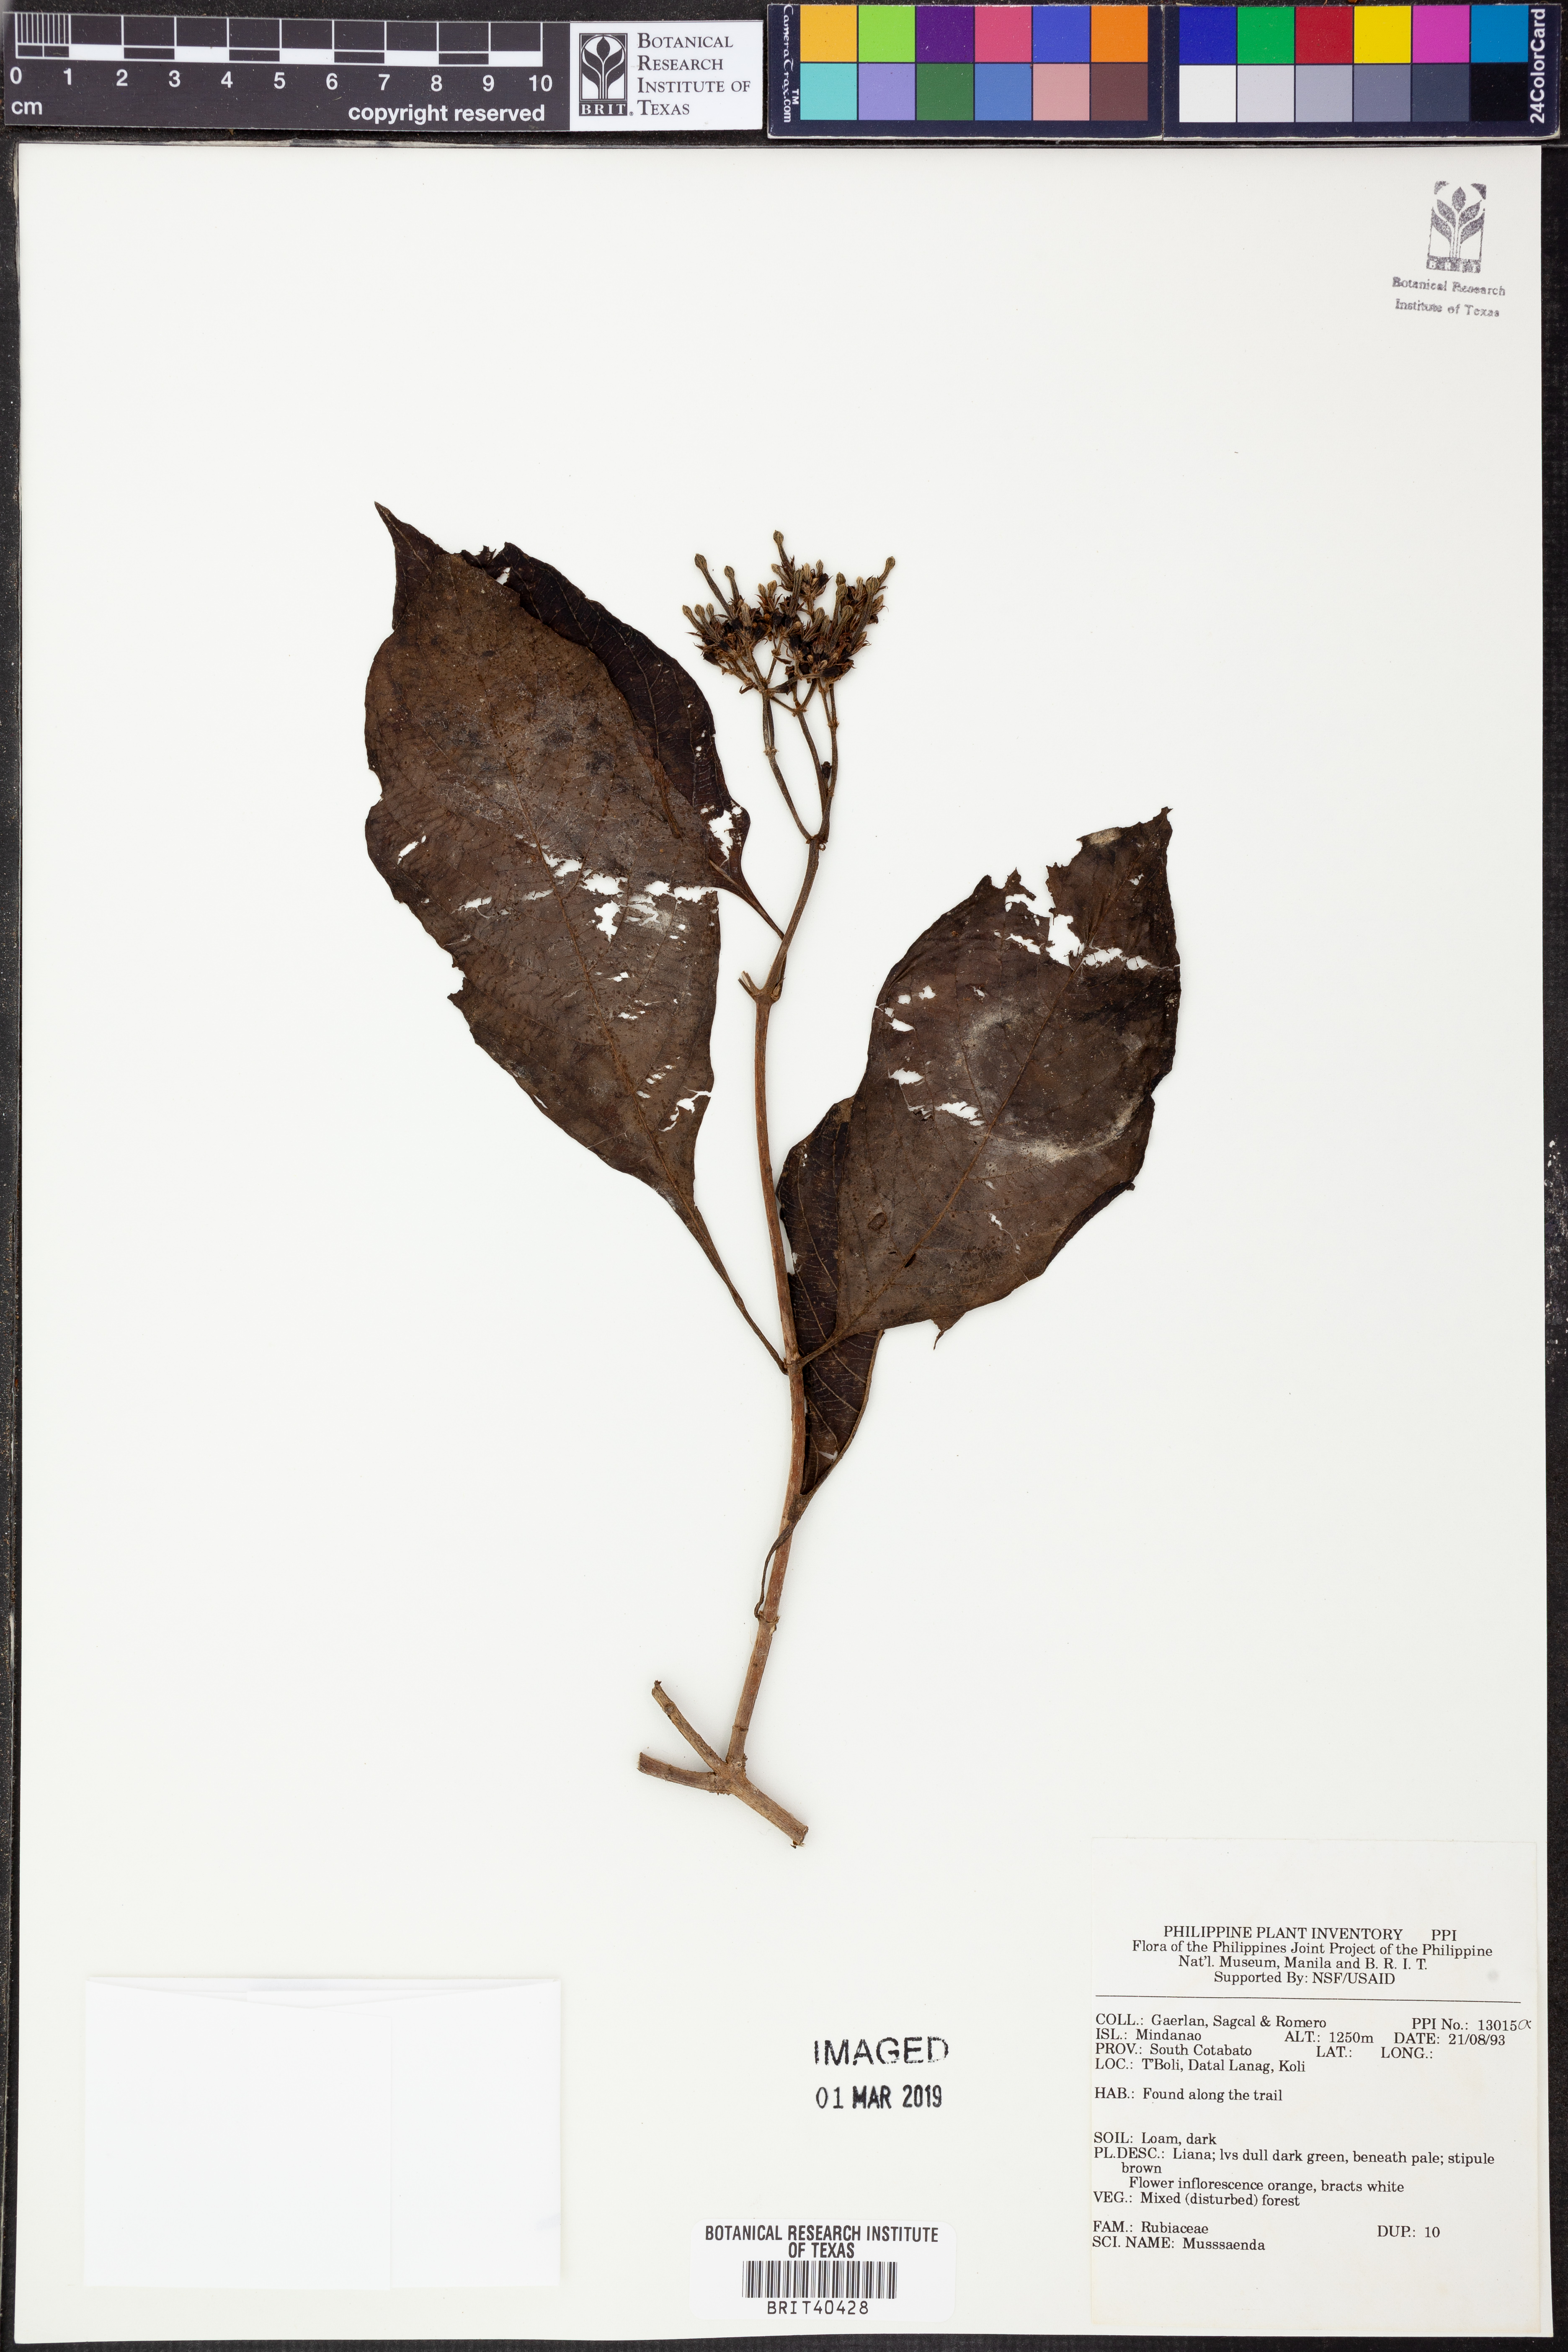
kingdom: Plantae
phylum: Tracheophyta
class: Magnoliopsida
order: Gentianales
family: Rubiaceae
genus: Mussaenda
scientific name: Mussaenda
